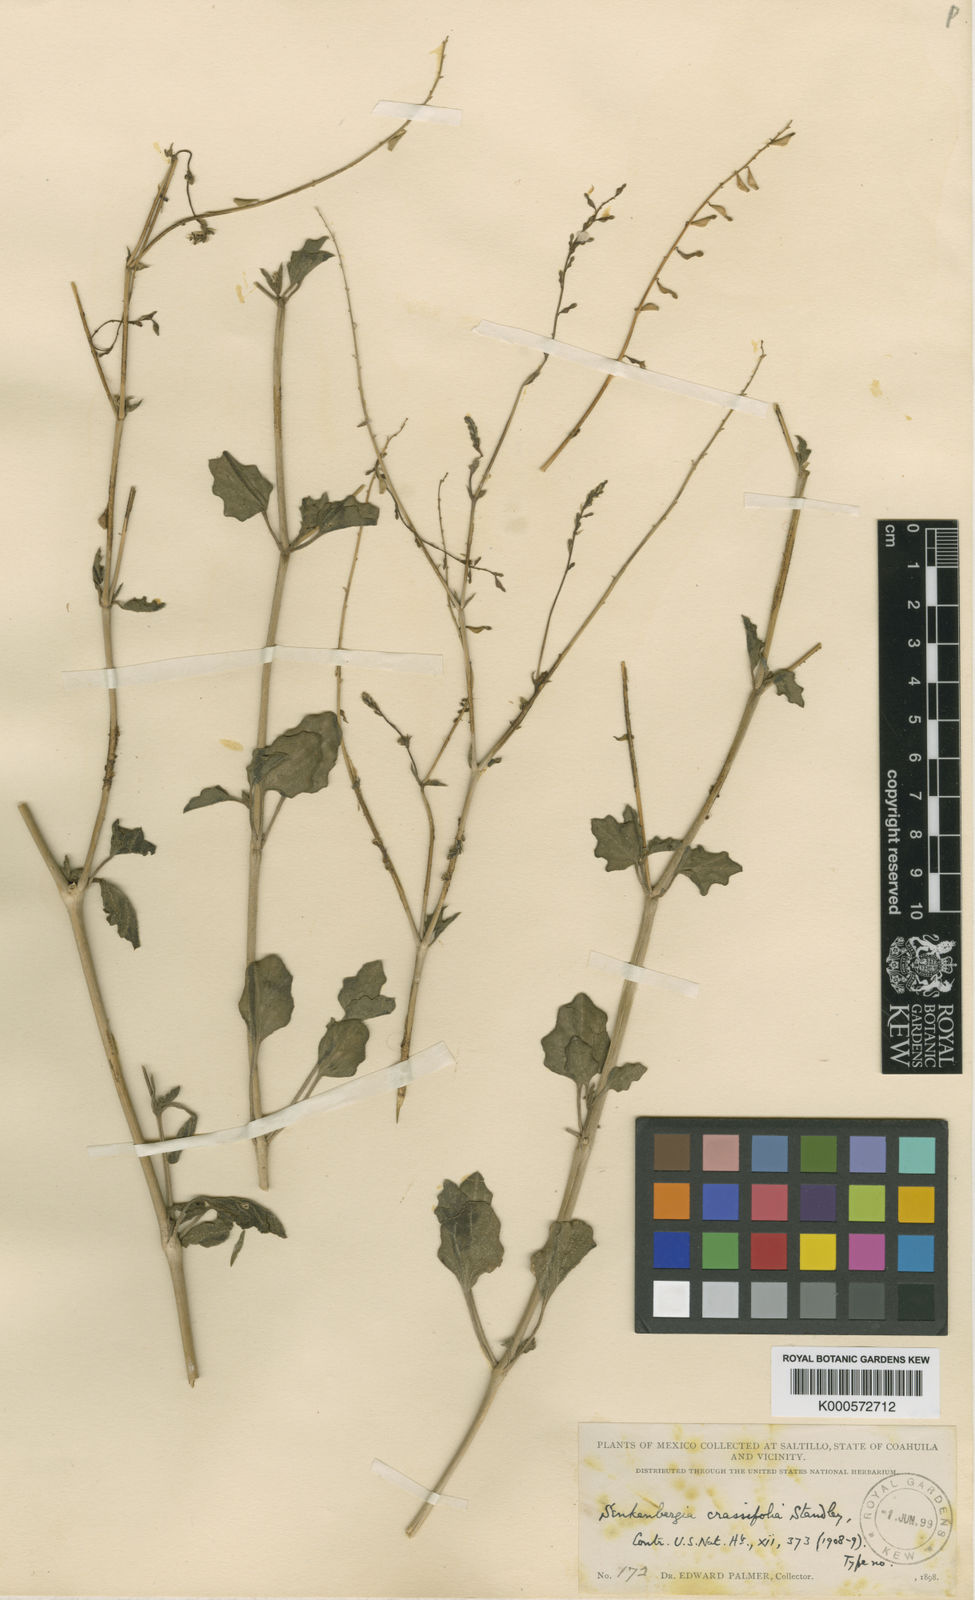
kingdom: Plantae
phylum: Tracheophyta
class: Magnoliopsida
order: Caryophyllales
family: Nyctaginaceae
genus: Cyphomeris
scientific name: Cyphomeris crassifolia
